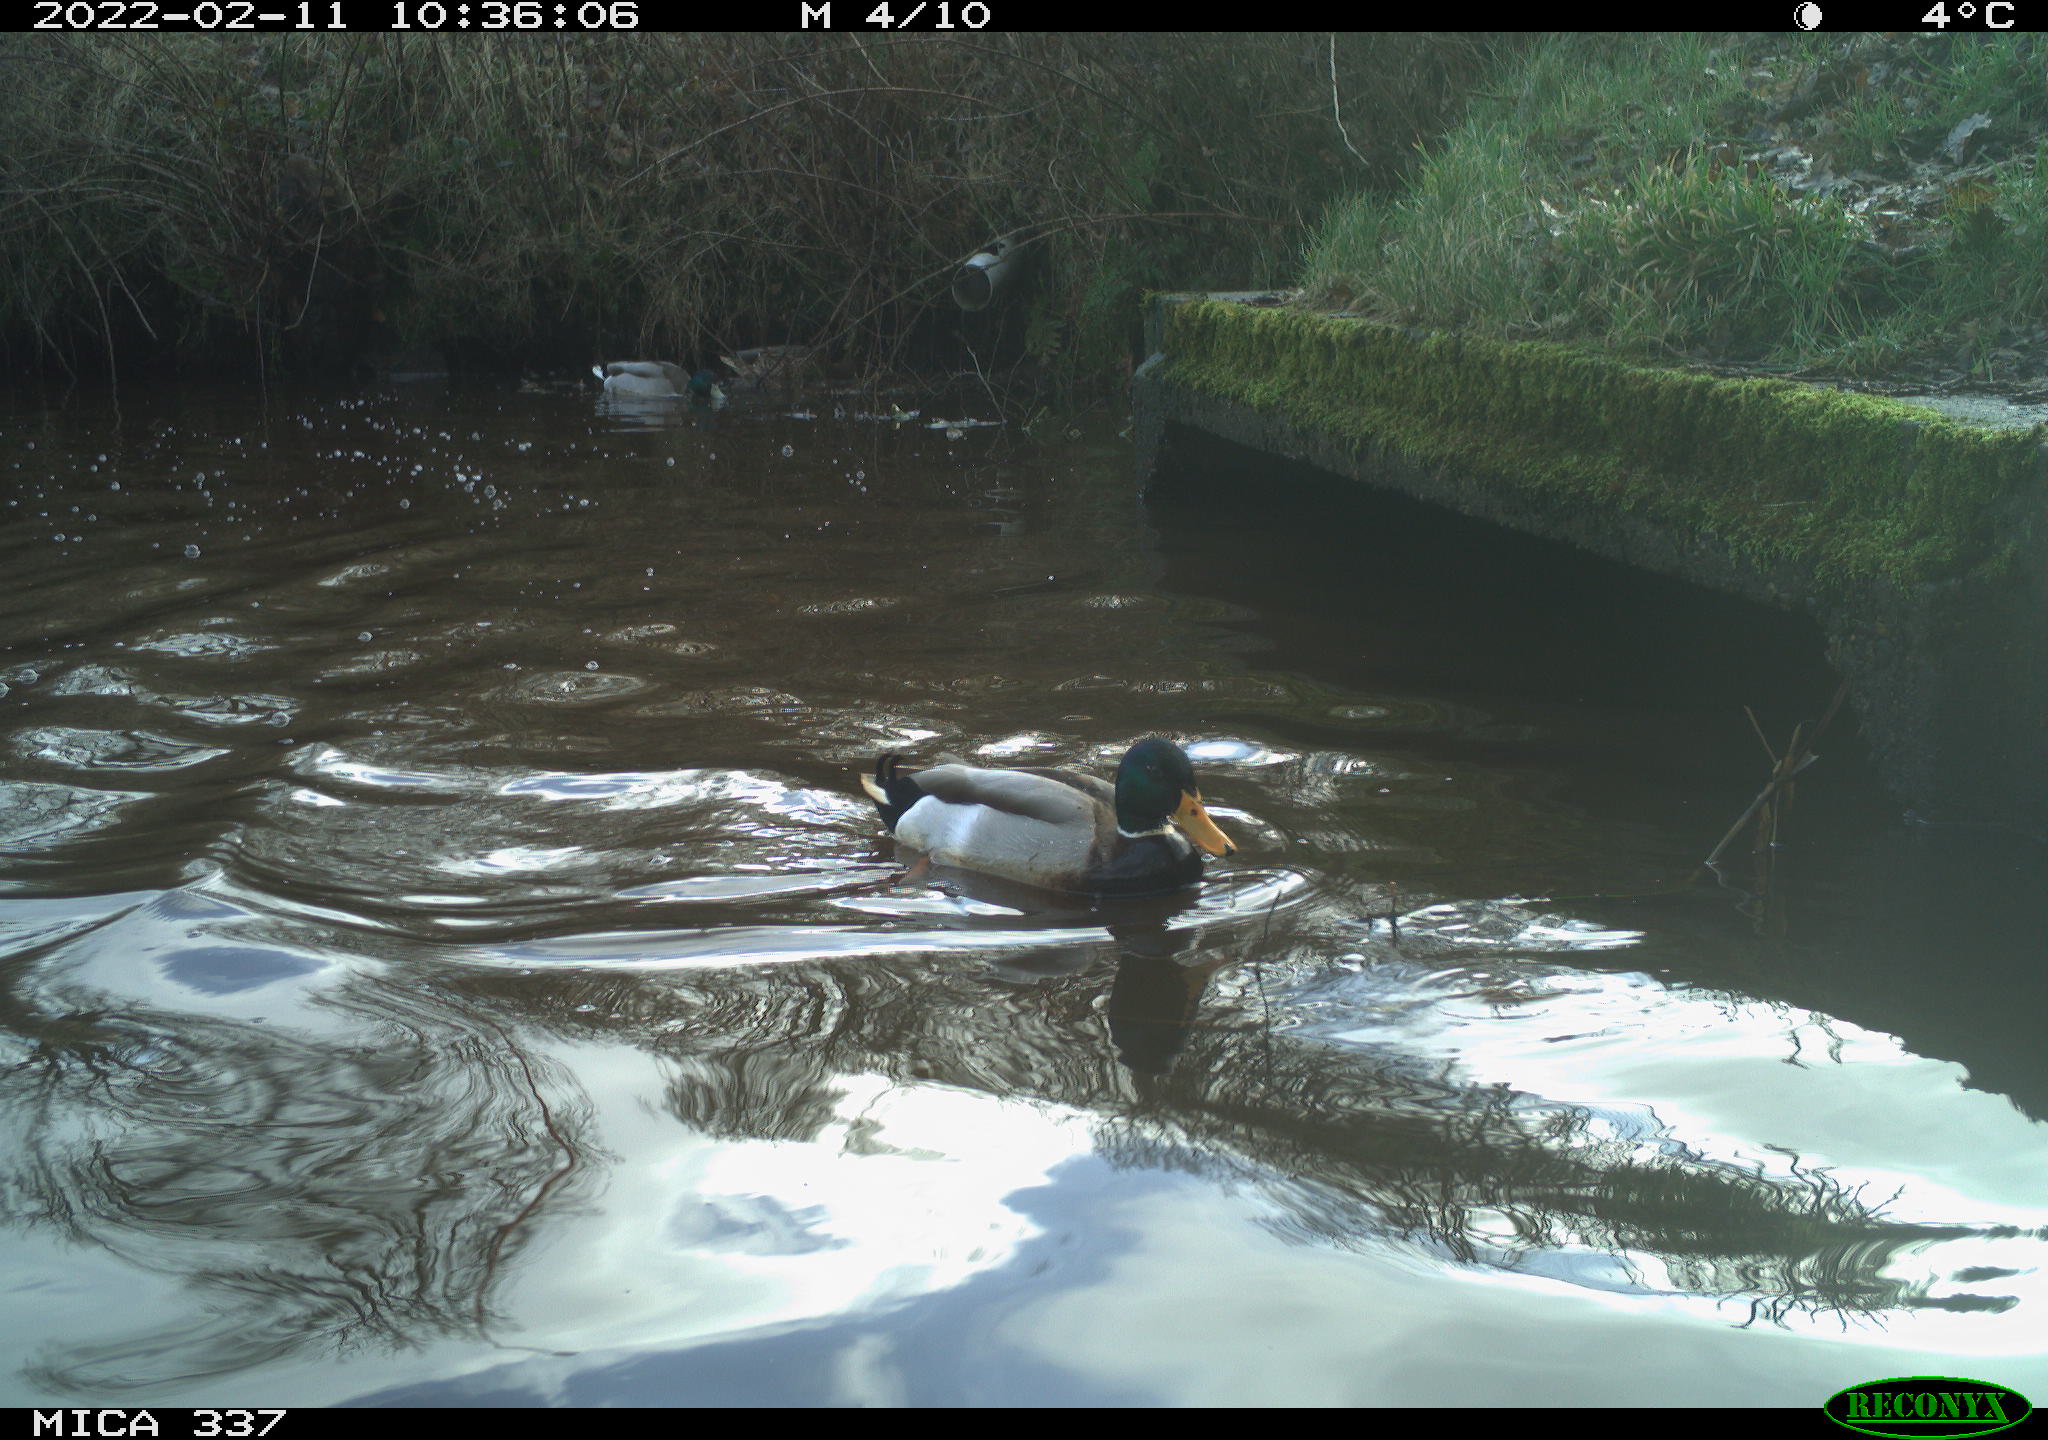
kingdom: Animalia
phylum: Chordata
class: Aves
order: Anseriformes
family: Anatidae
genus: Anas
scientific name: Anas platyrhynchos
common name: Mallard
